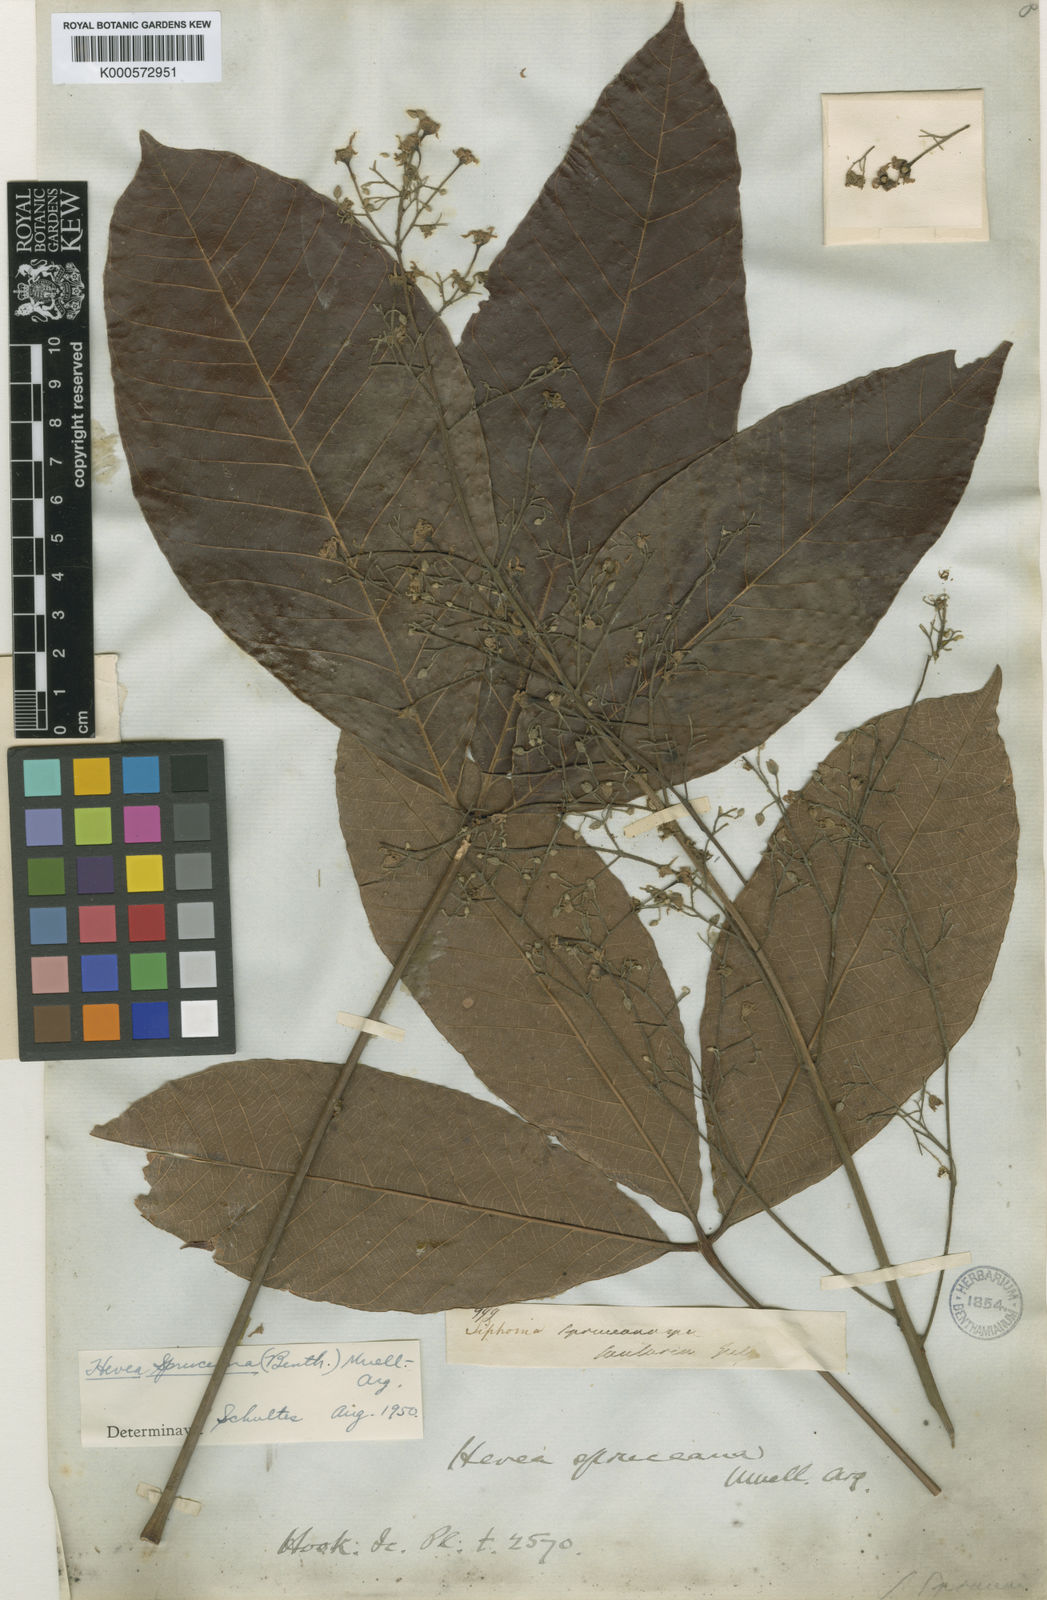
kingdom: Plantae
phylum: Tracheophyta
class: Magnoliopsida
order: Malpighiales
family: Euphorbiaceae
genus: Hevea
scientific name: Hevea
